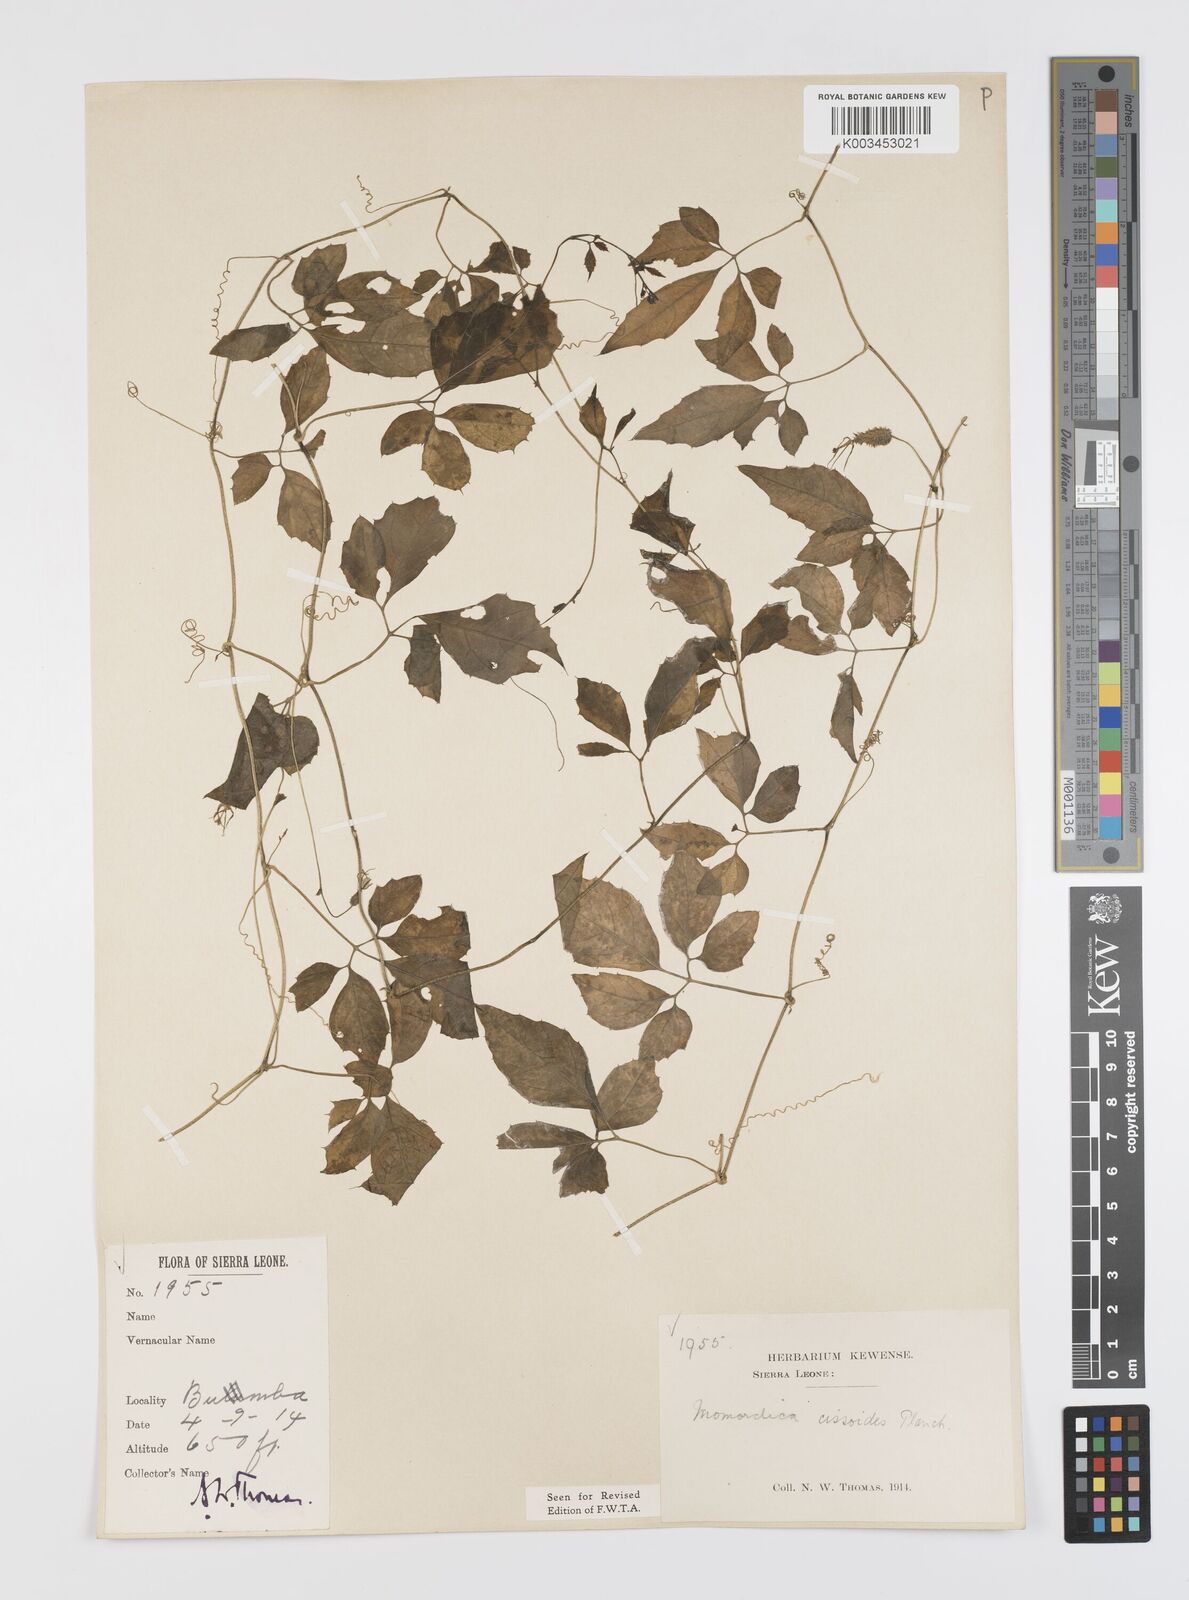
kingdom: Plantae
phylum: Tracheophyta
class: Magnoliopsida
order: Cucurbitales
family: Cucurbitaceae
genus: Momordica
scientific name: Momordica cissoides
